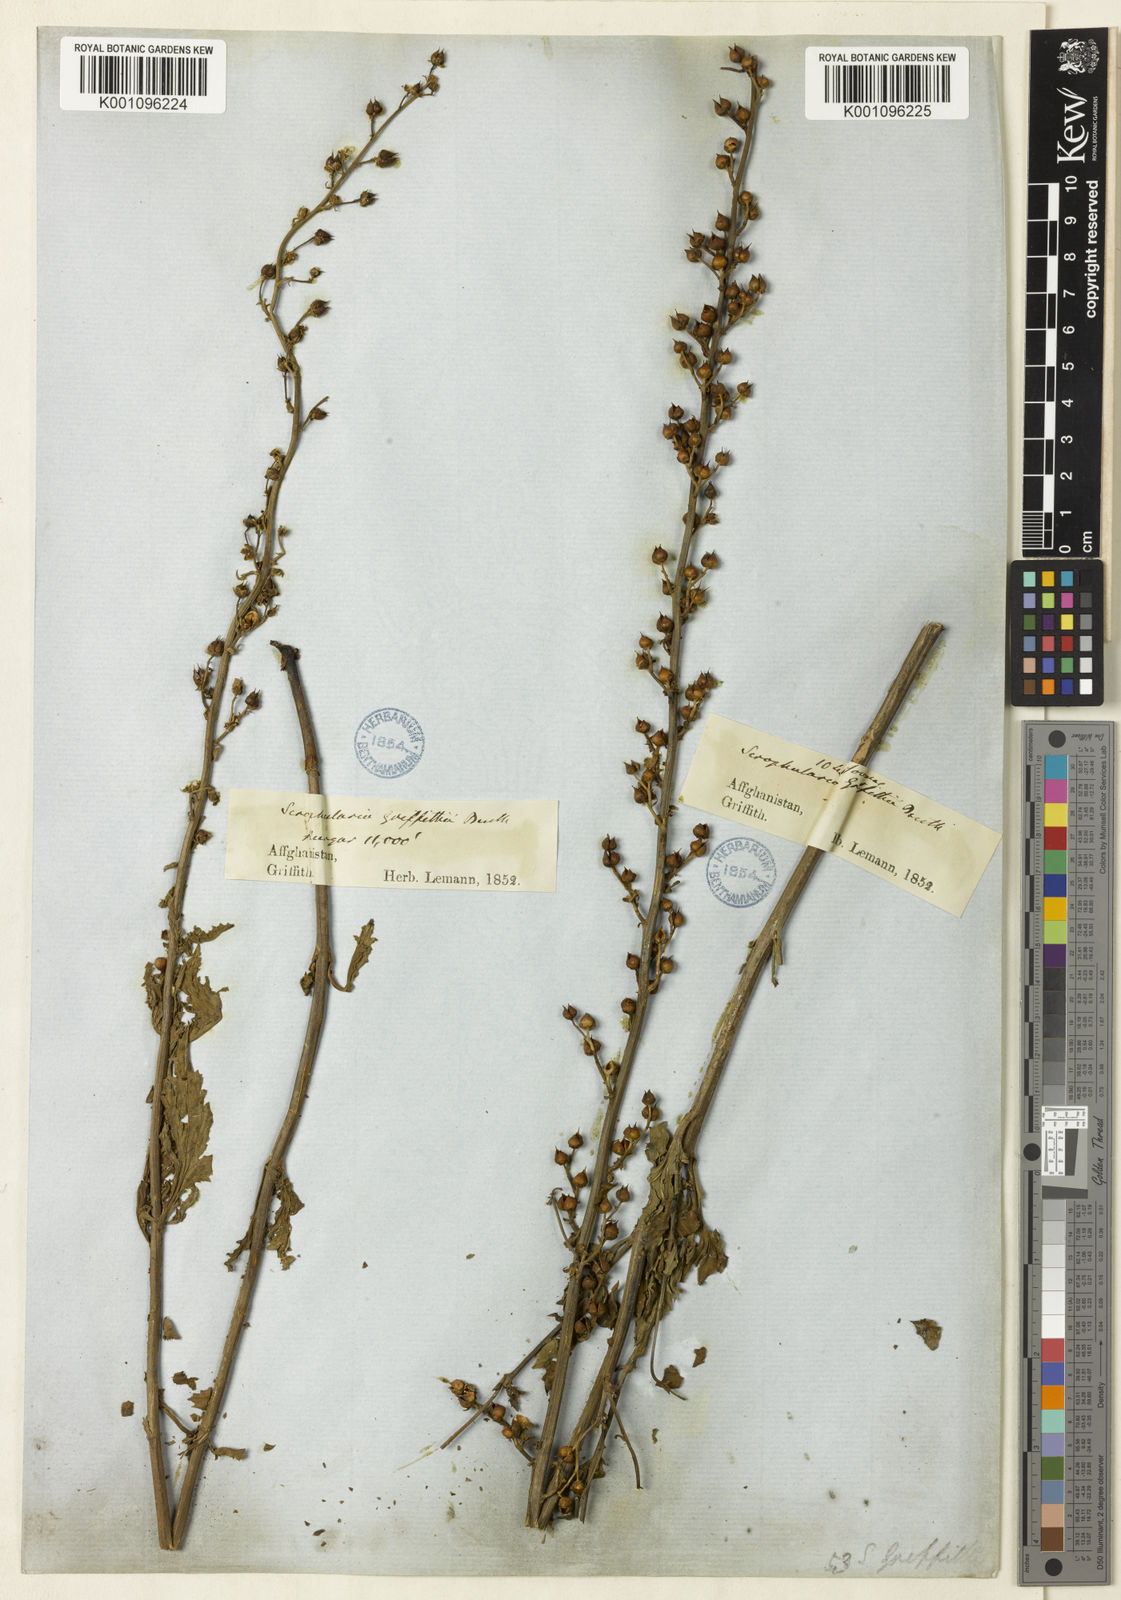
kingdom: Plantae
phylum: Tracheophyta
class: Magnoliopsida
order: Lamiales
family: Scrophulariaceae
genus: Scrophularia
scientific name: Scrophularia griffithii
